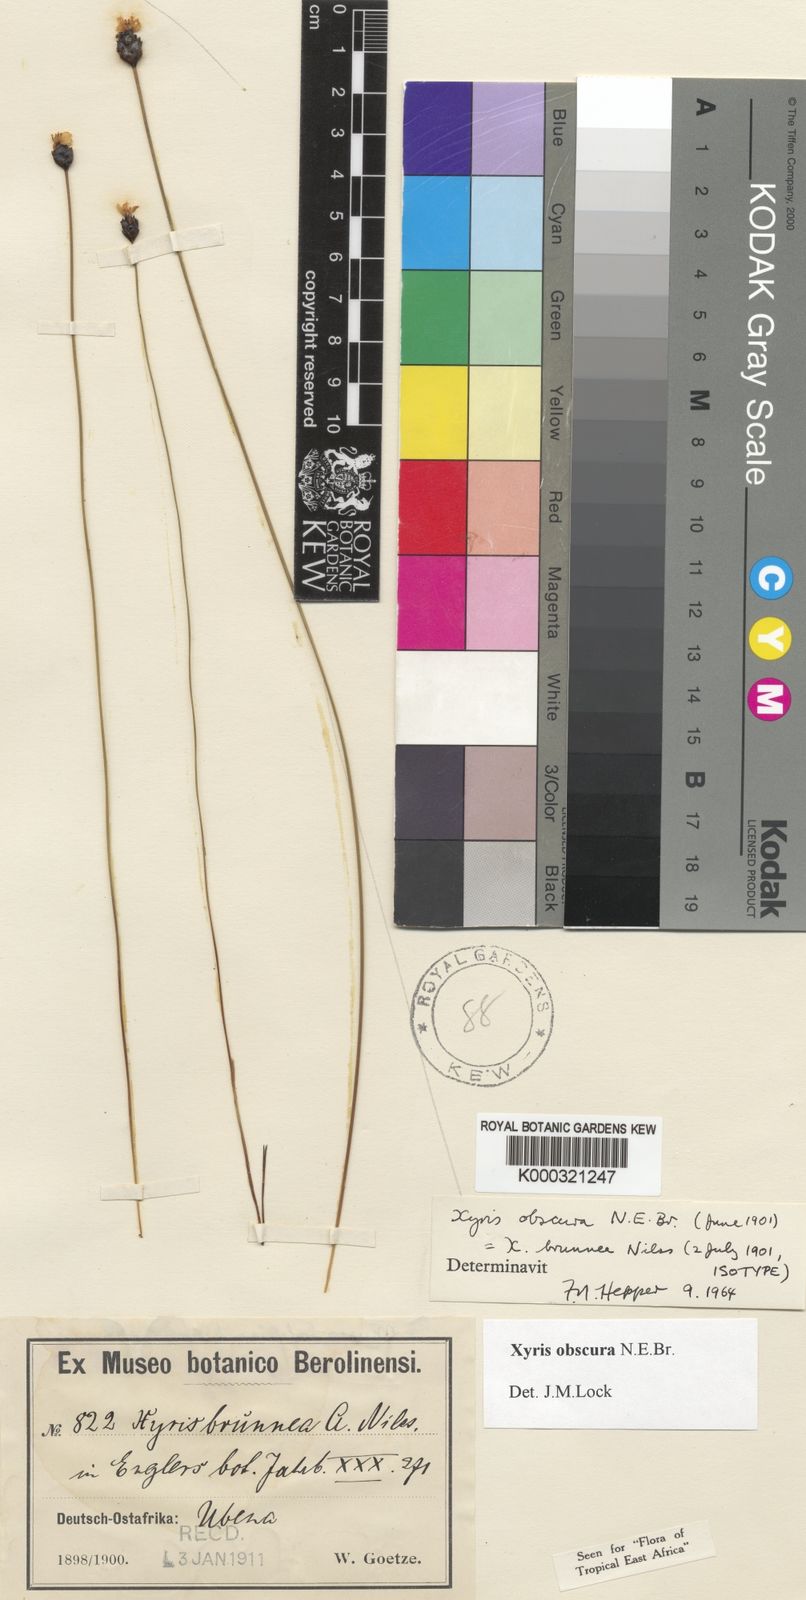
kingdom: Plantae
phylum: Tracheophyta
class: Liliopsida
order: Poales
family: Xyridaceae
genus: Xyris
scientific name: Xyris obscura
